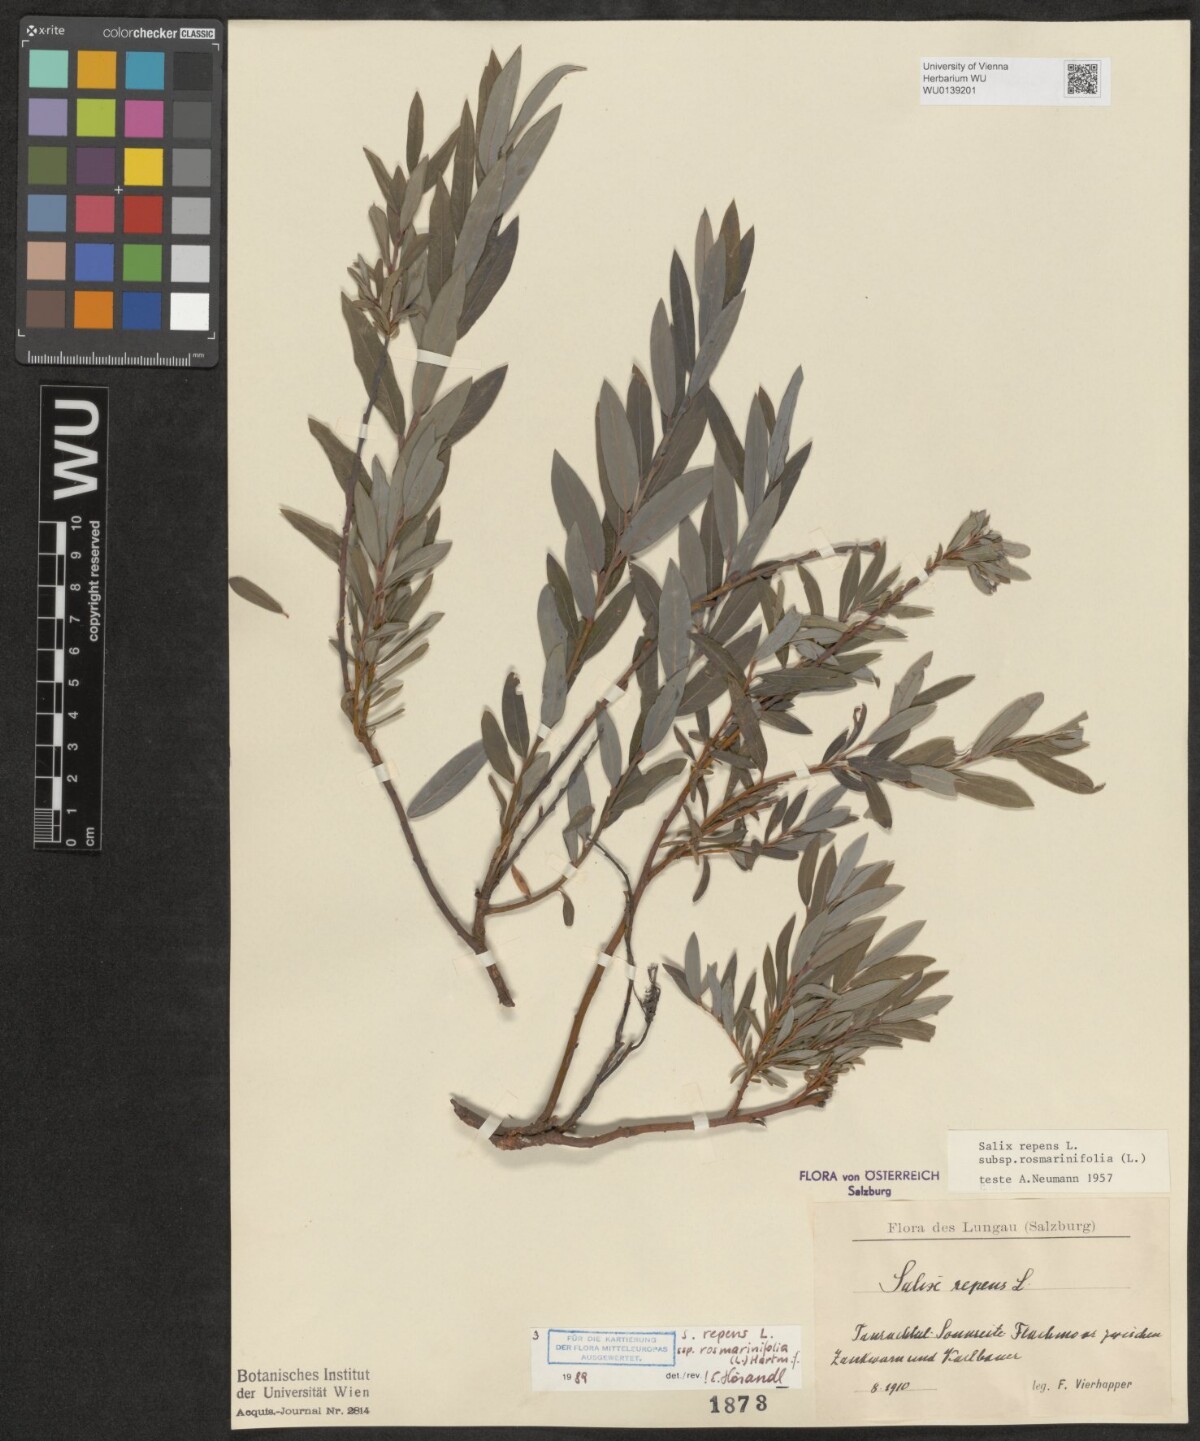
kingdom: Plantae
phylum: Tracheophyta
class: Magnoliopsida
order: Malpighiales
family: Salicaceae
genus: Salix
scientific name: Salix repens
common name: Creeping willow
